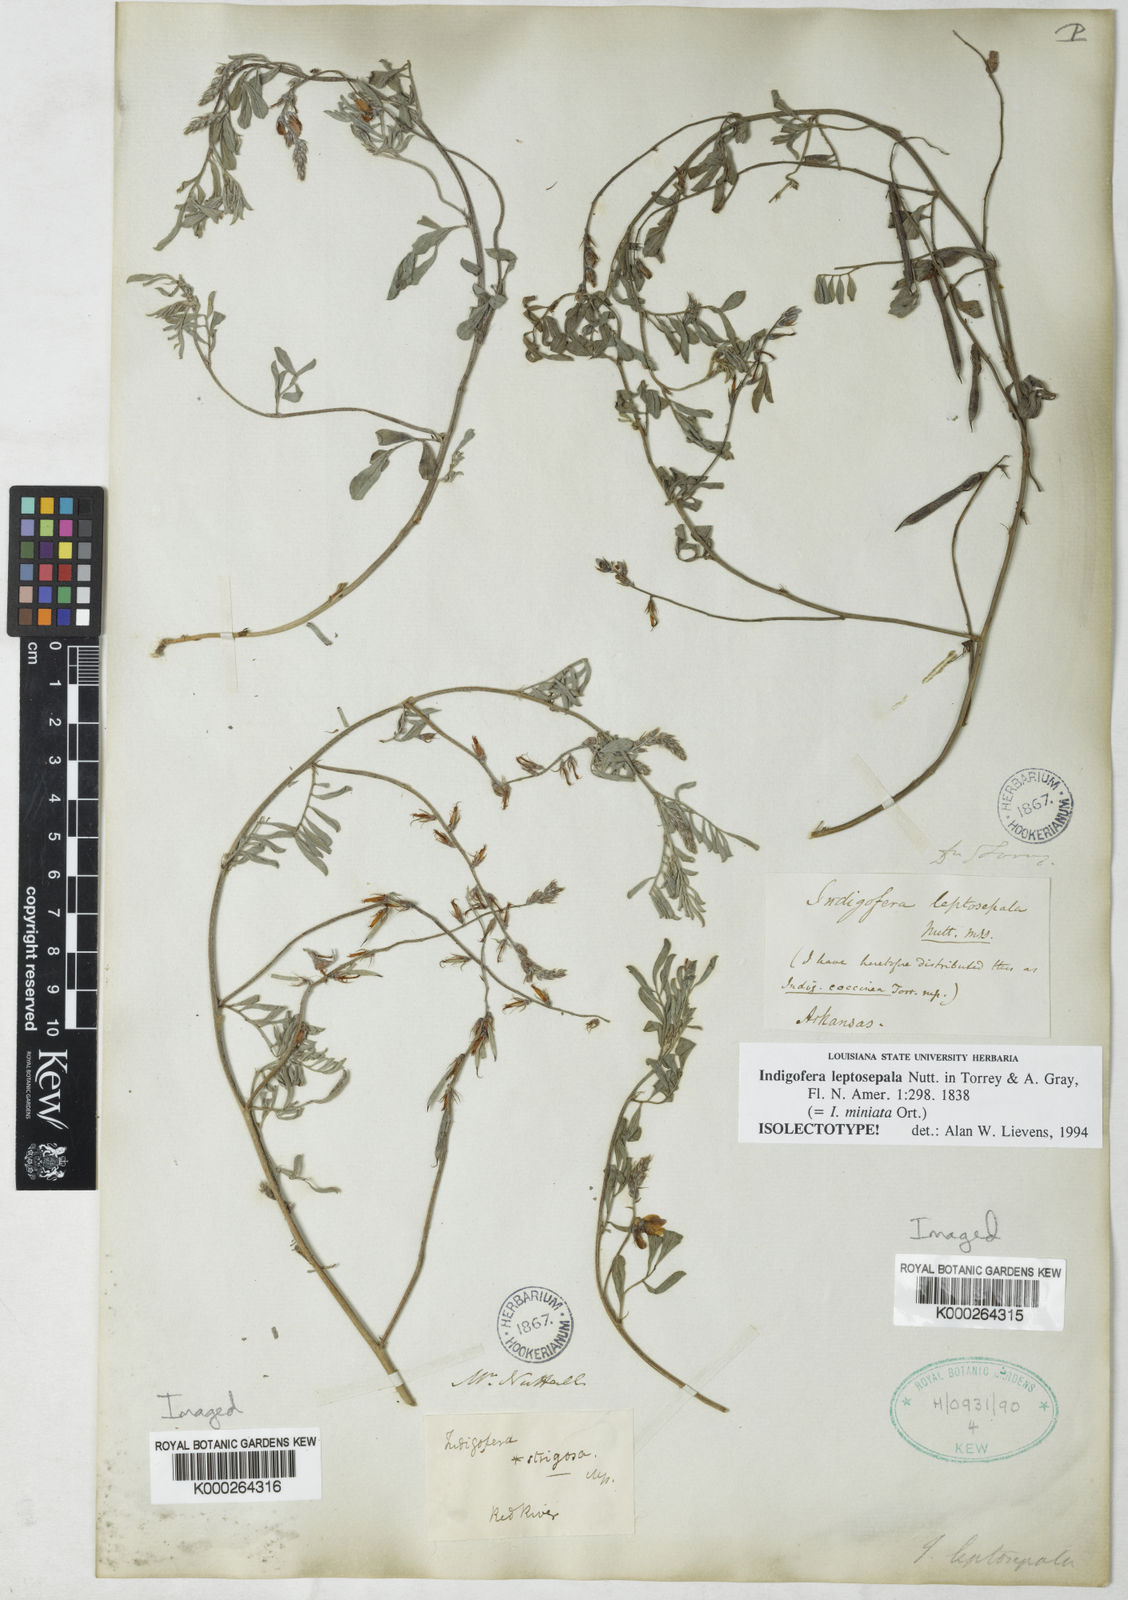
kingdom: Plantae
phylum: Tracheophyta
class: Magnoliopsida
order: Fabales
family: Fabaceae
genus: Indigofera
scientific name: Indigofera miniata
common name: Coast indigo
